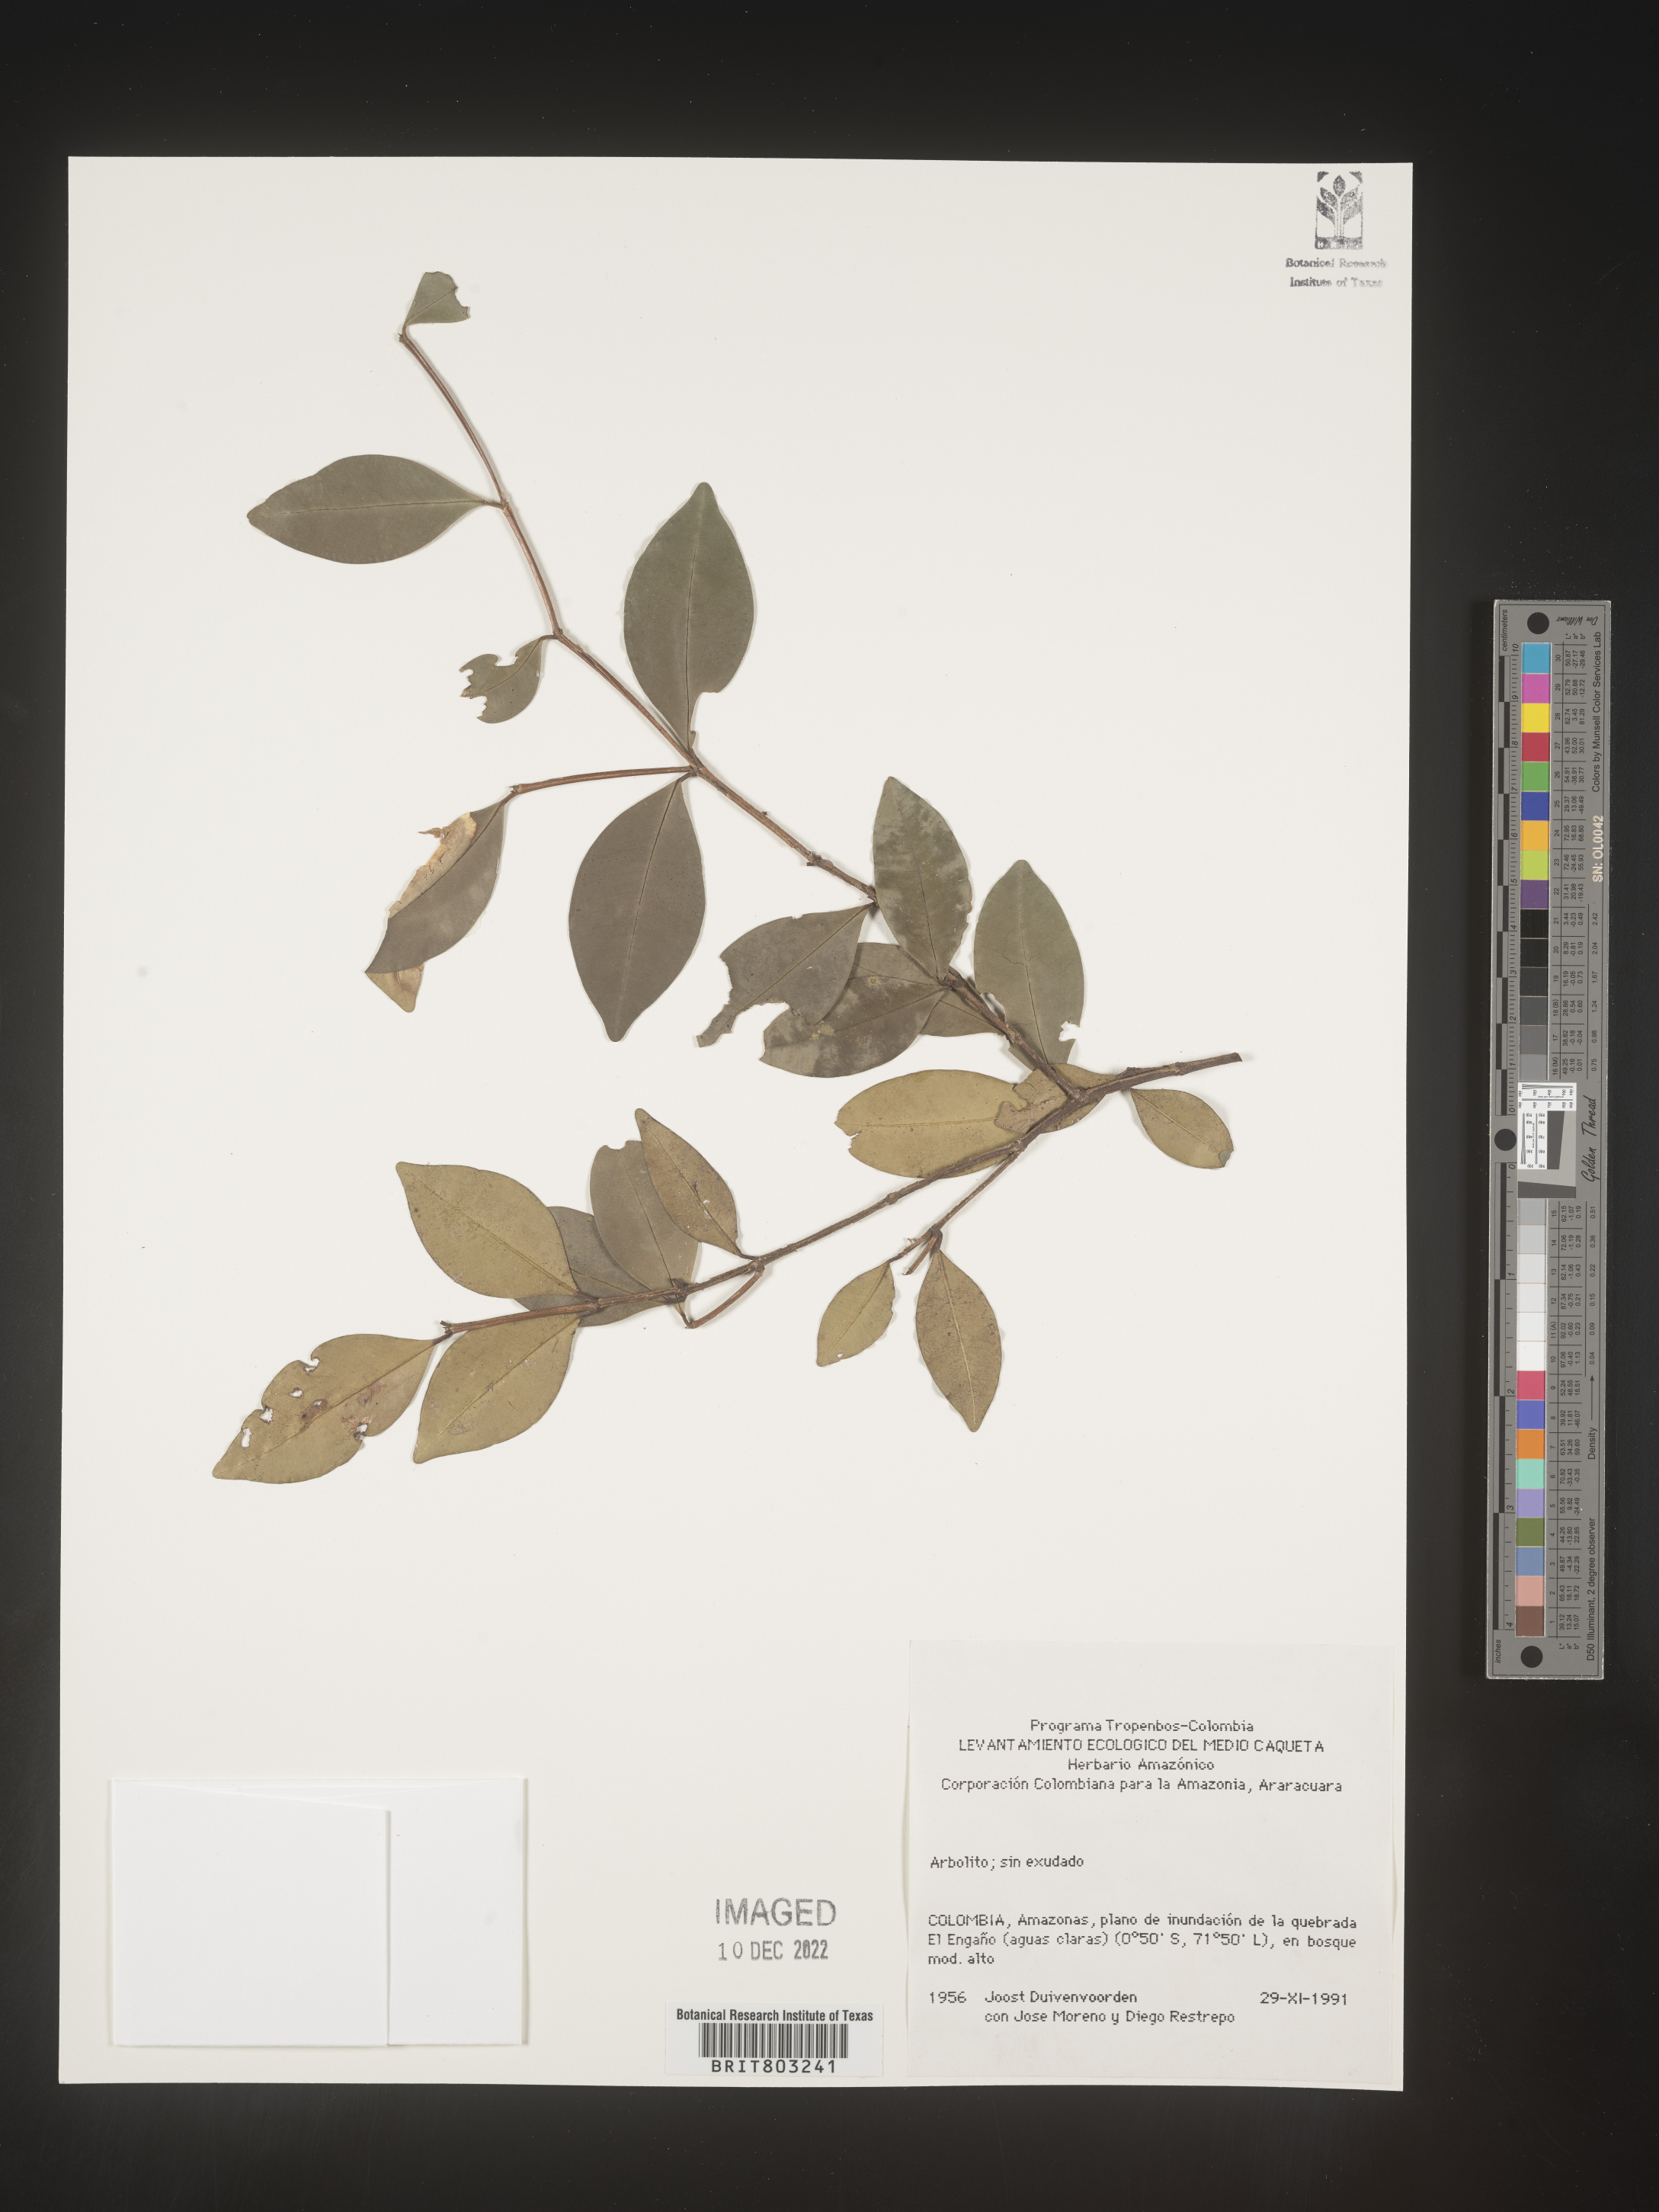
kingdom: Plantae
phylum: Tracheophyta
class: Magnoliopsida
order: Malpighiales
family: Clusiaceae
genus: Tovomita
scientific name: Tovomita
